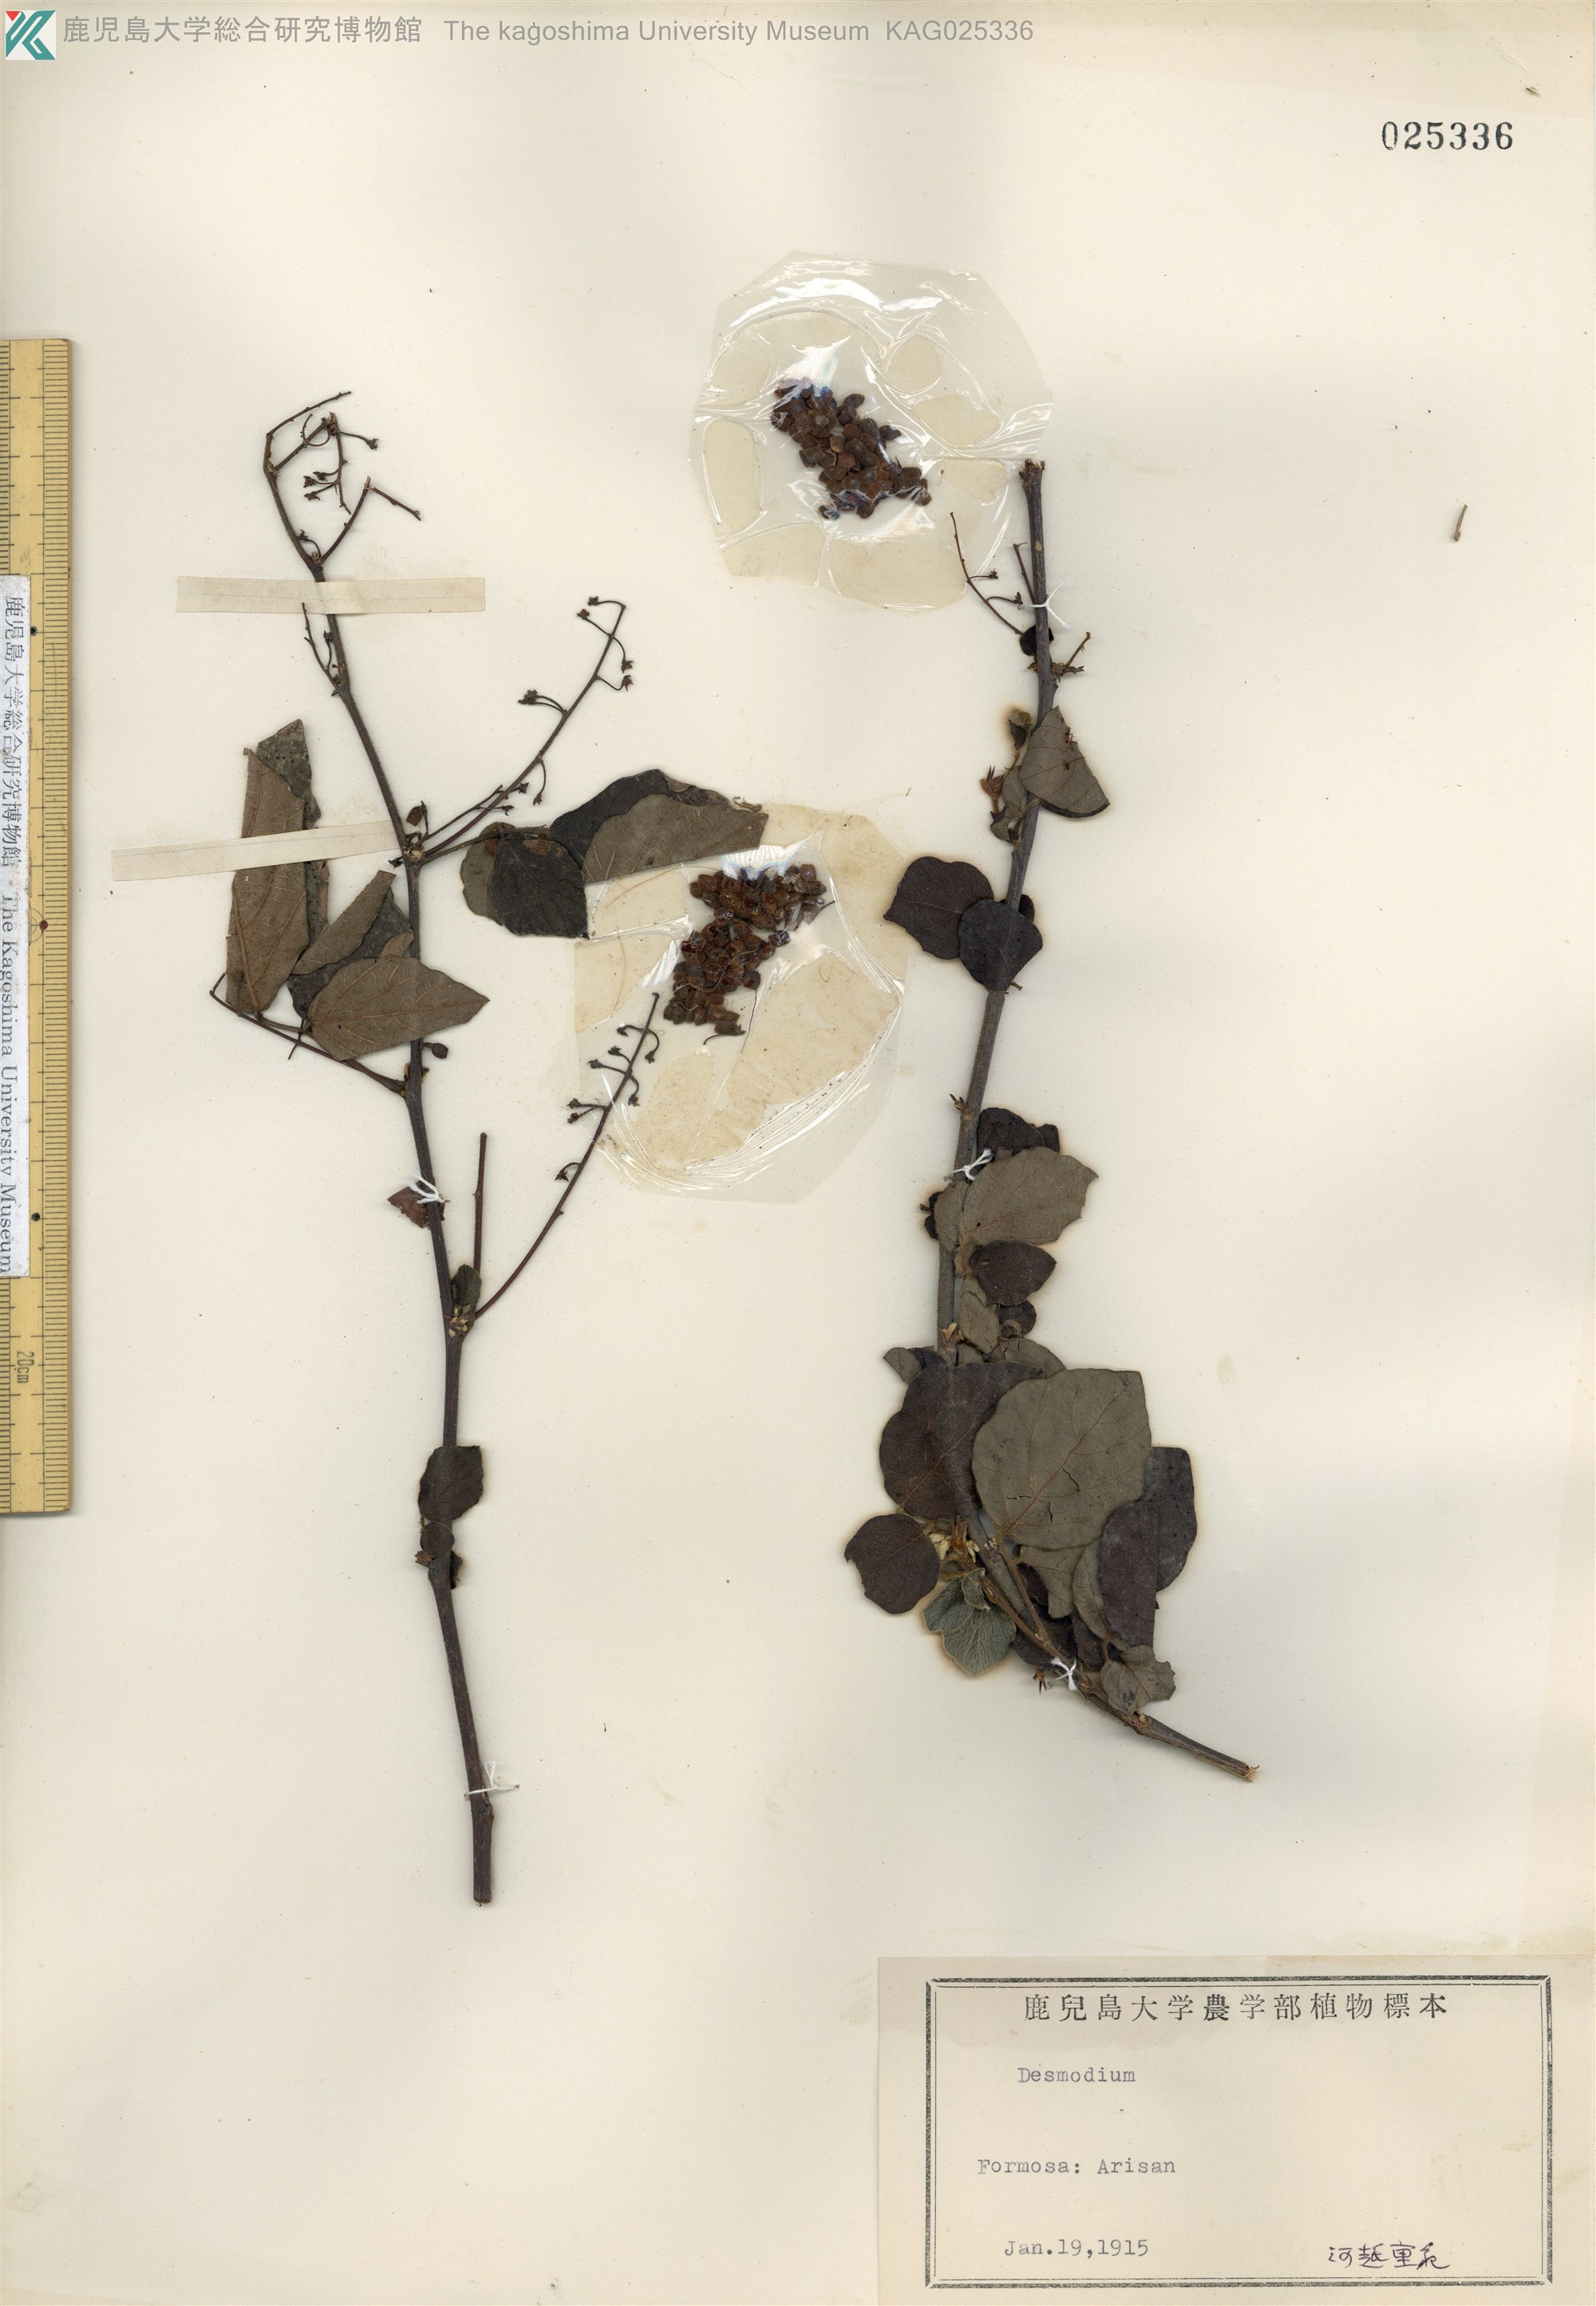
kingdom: Plantae
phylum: Tracheophyta
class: Magnoliopsida
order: Fabales
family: Fabaceae
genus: Puhuaea
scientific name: Puhuaea sequax
